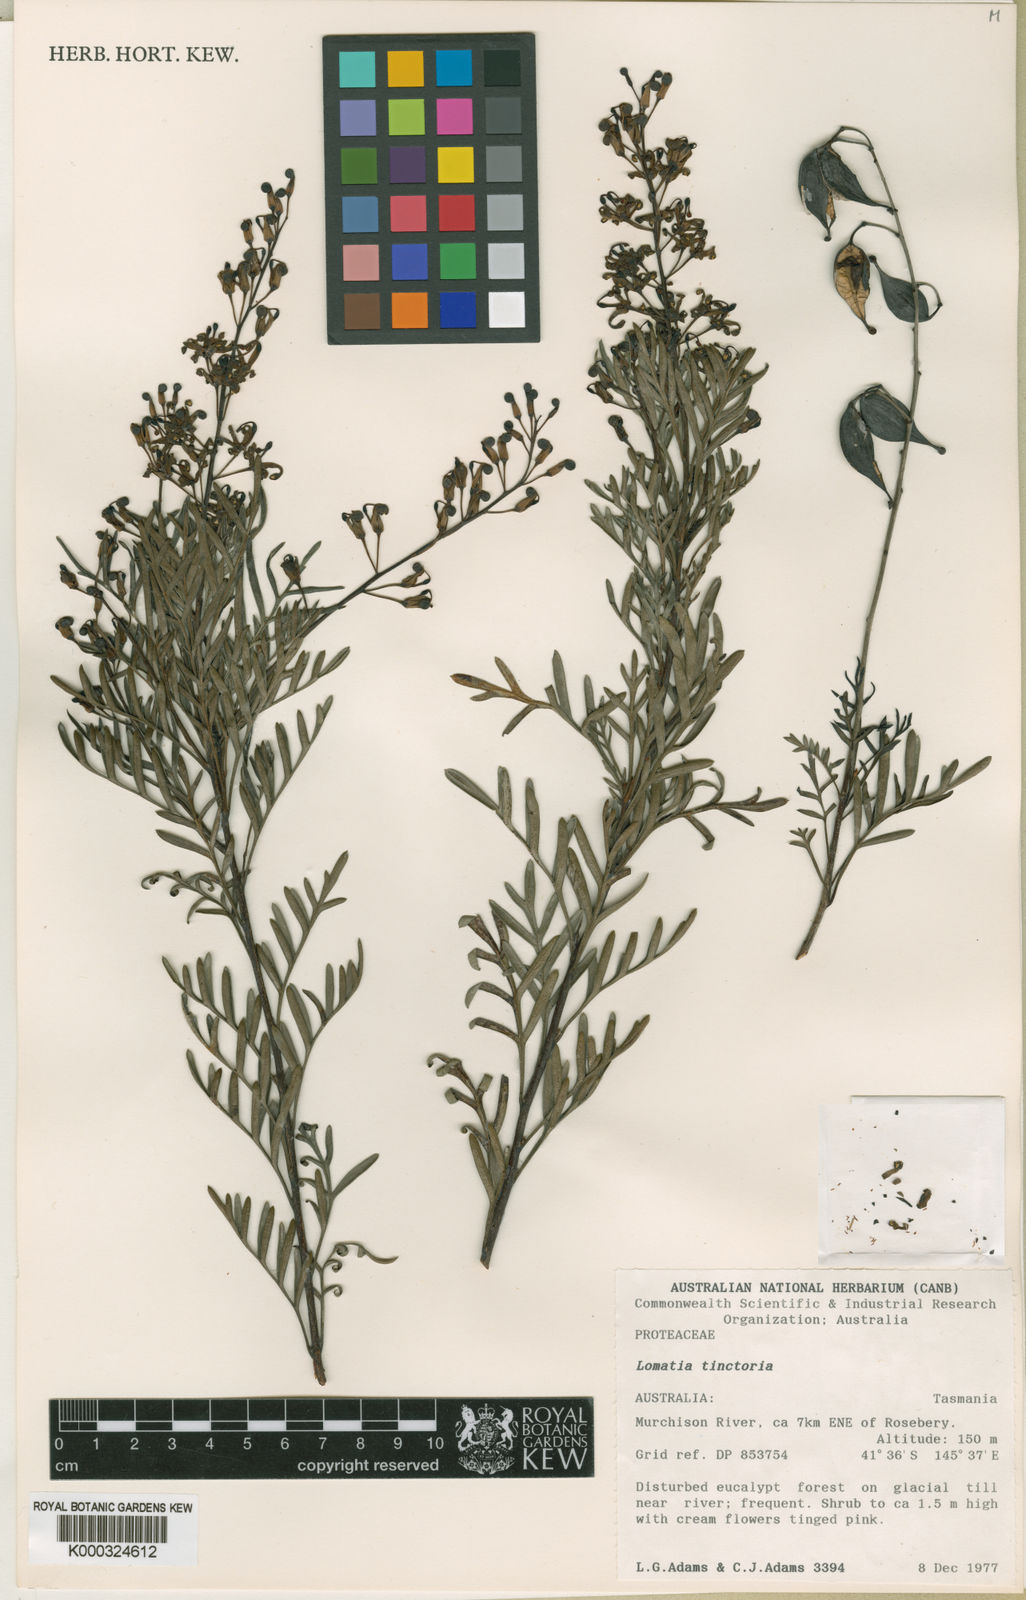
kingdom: Plantae
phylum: Tracheophyta
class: Magnoliopsida
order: Proteales
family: Proteaceae
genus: Lomatia
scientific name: Lomatia tinctoria
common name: Guitar plant
